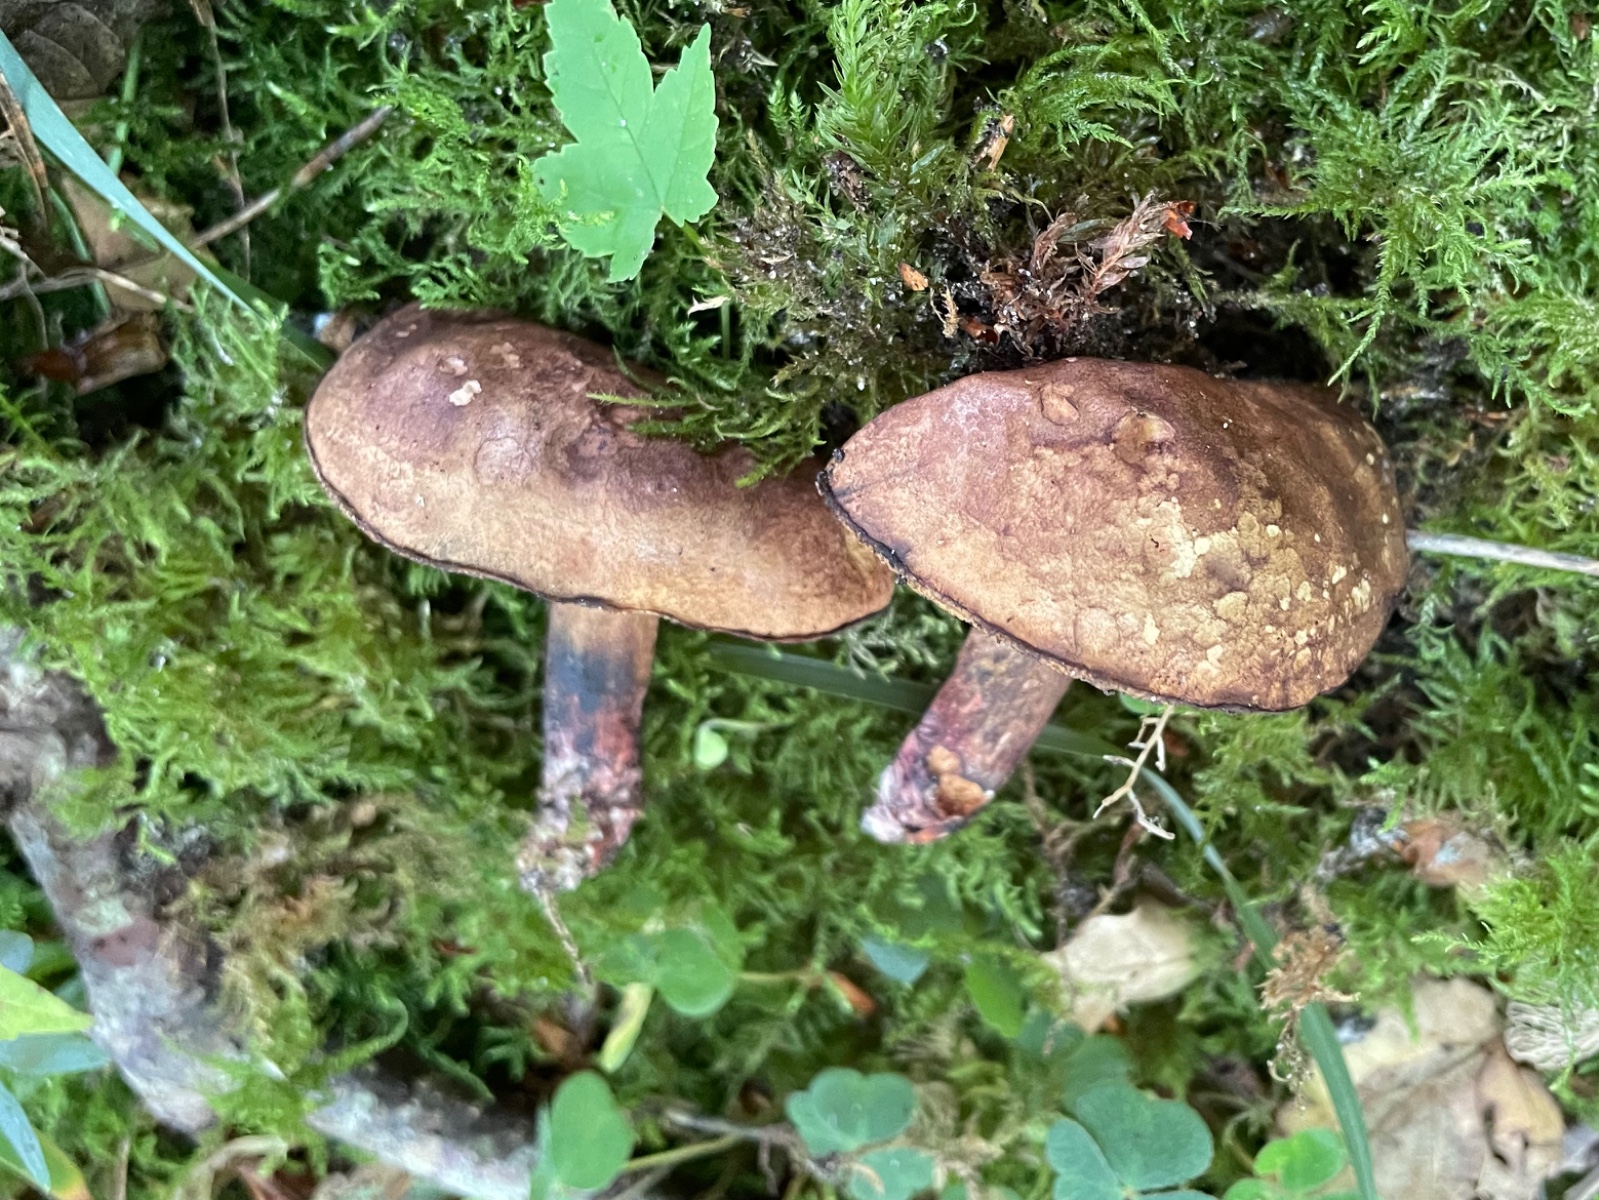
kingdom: Fungi
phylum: Basidiomycota
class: Agaricomycetes
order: Boletales
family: Boletaceae
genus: Cyanoboletus
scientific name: Cyanoboletus pulverulentus
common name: sortblånende rørhat
